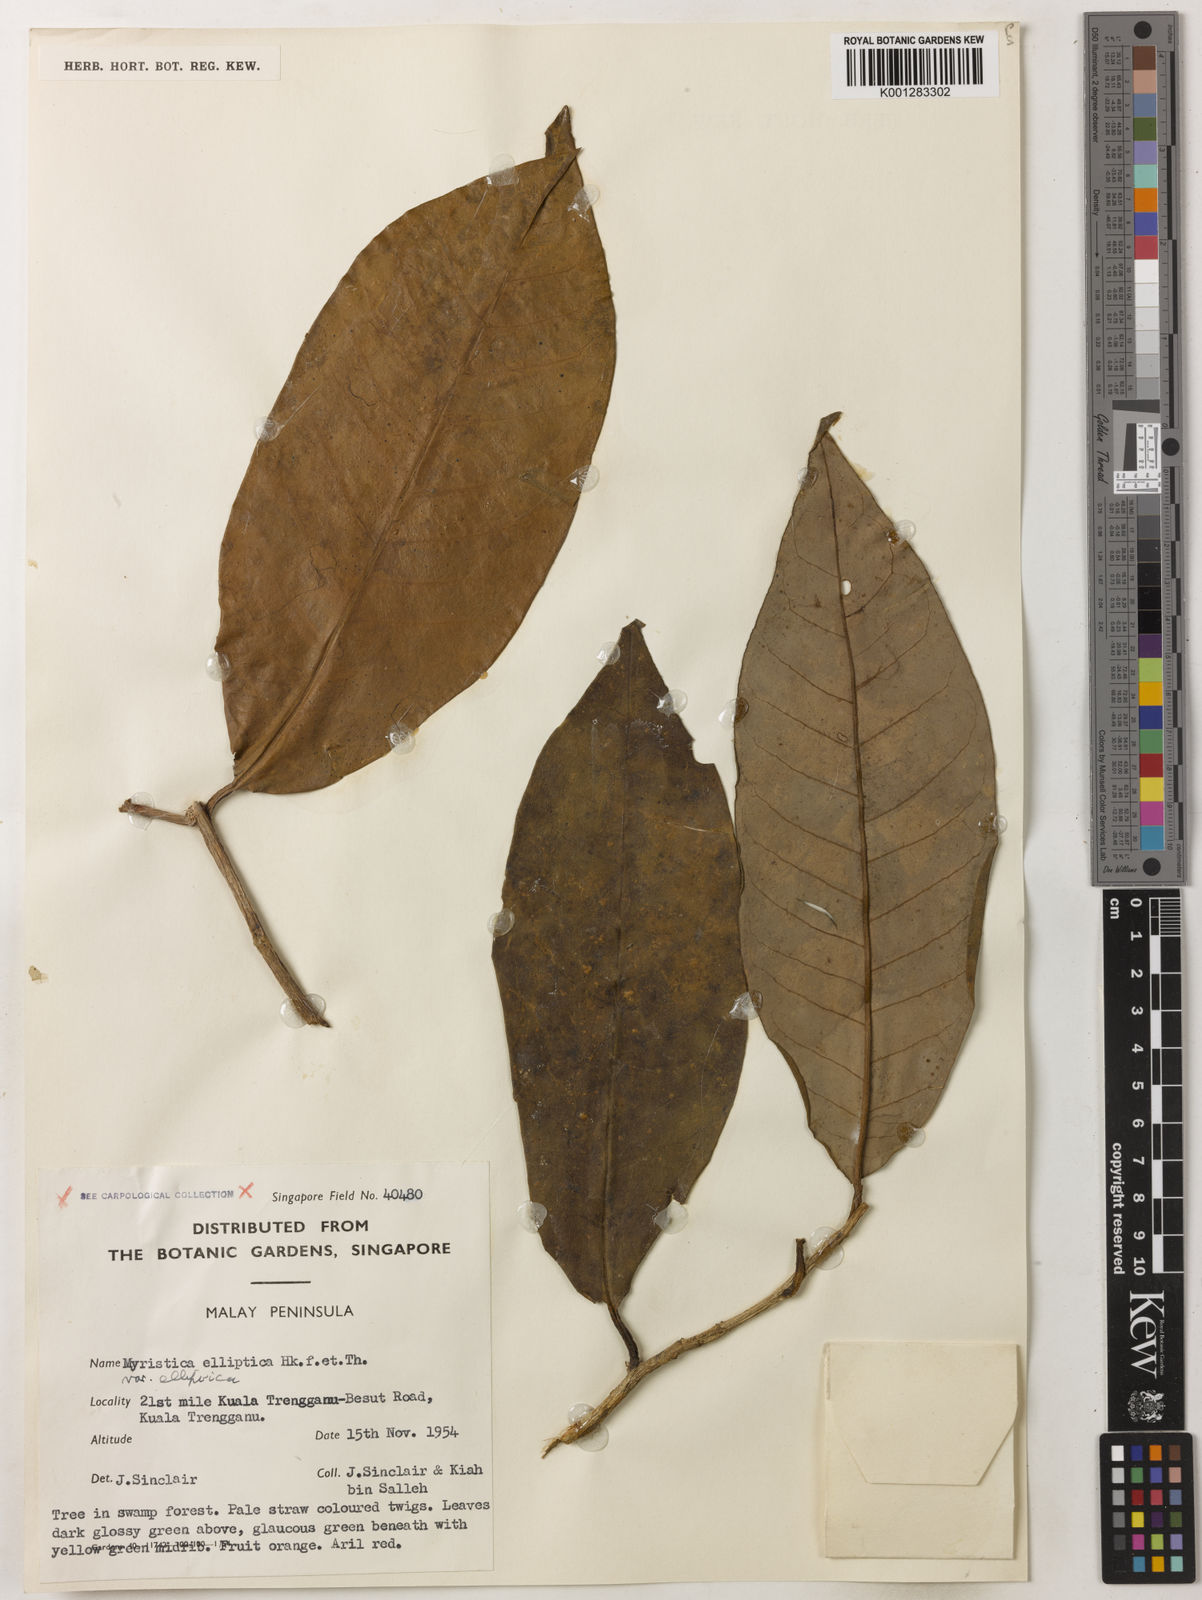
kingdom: Plantae
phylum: Tracheophyta
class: Magnoliopsida
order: Magnoliales
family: Myristicaceae
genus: Myristica
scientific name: Myristica elliptica
